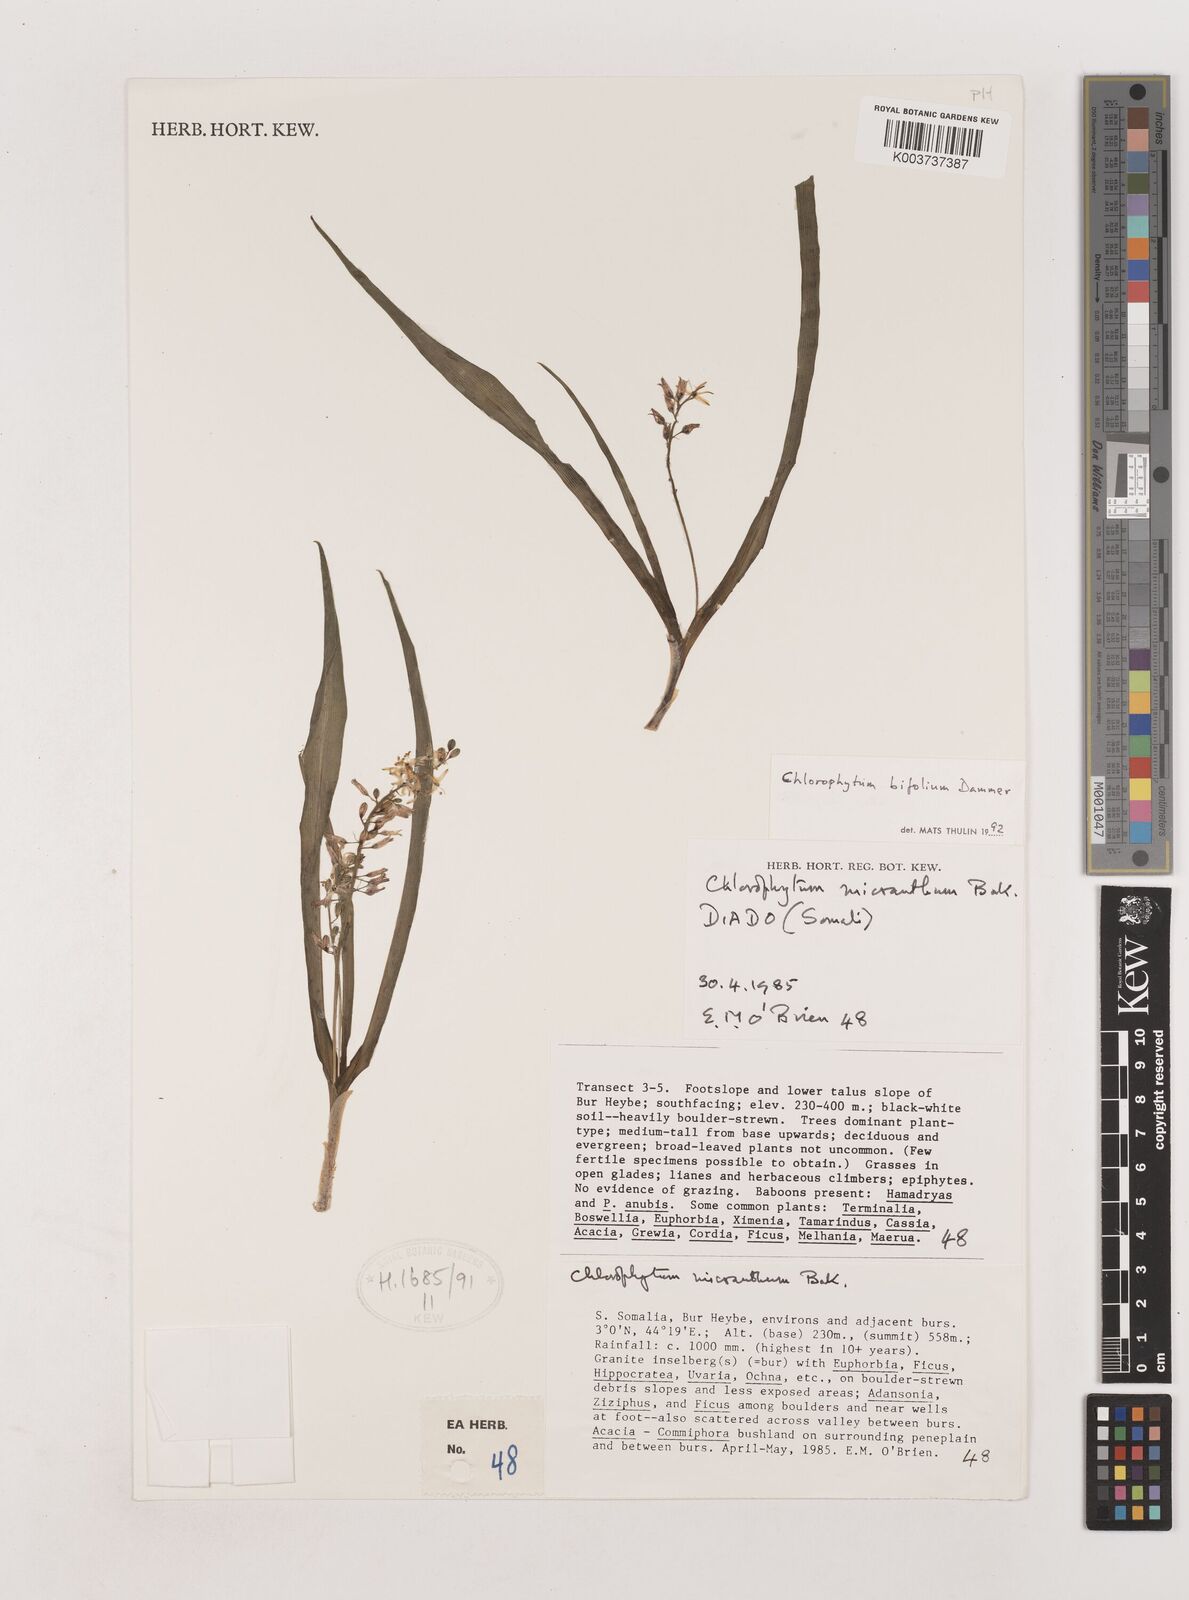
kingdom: Plantae
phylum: Tracheophyta
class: Liliopsida
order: Asparagales
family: Asparagaceae
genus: Chlorophytum
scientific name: Chlorophytum bifolium
